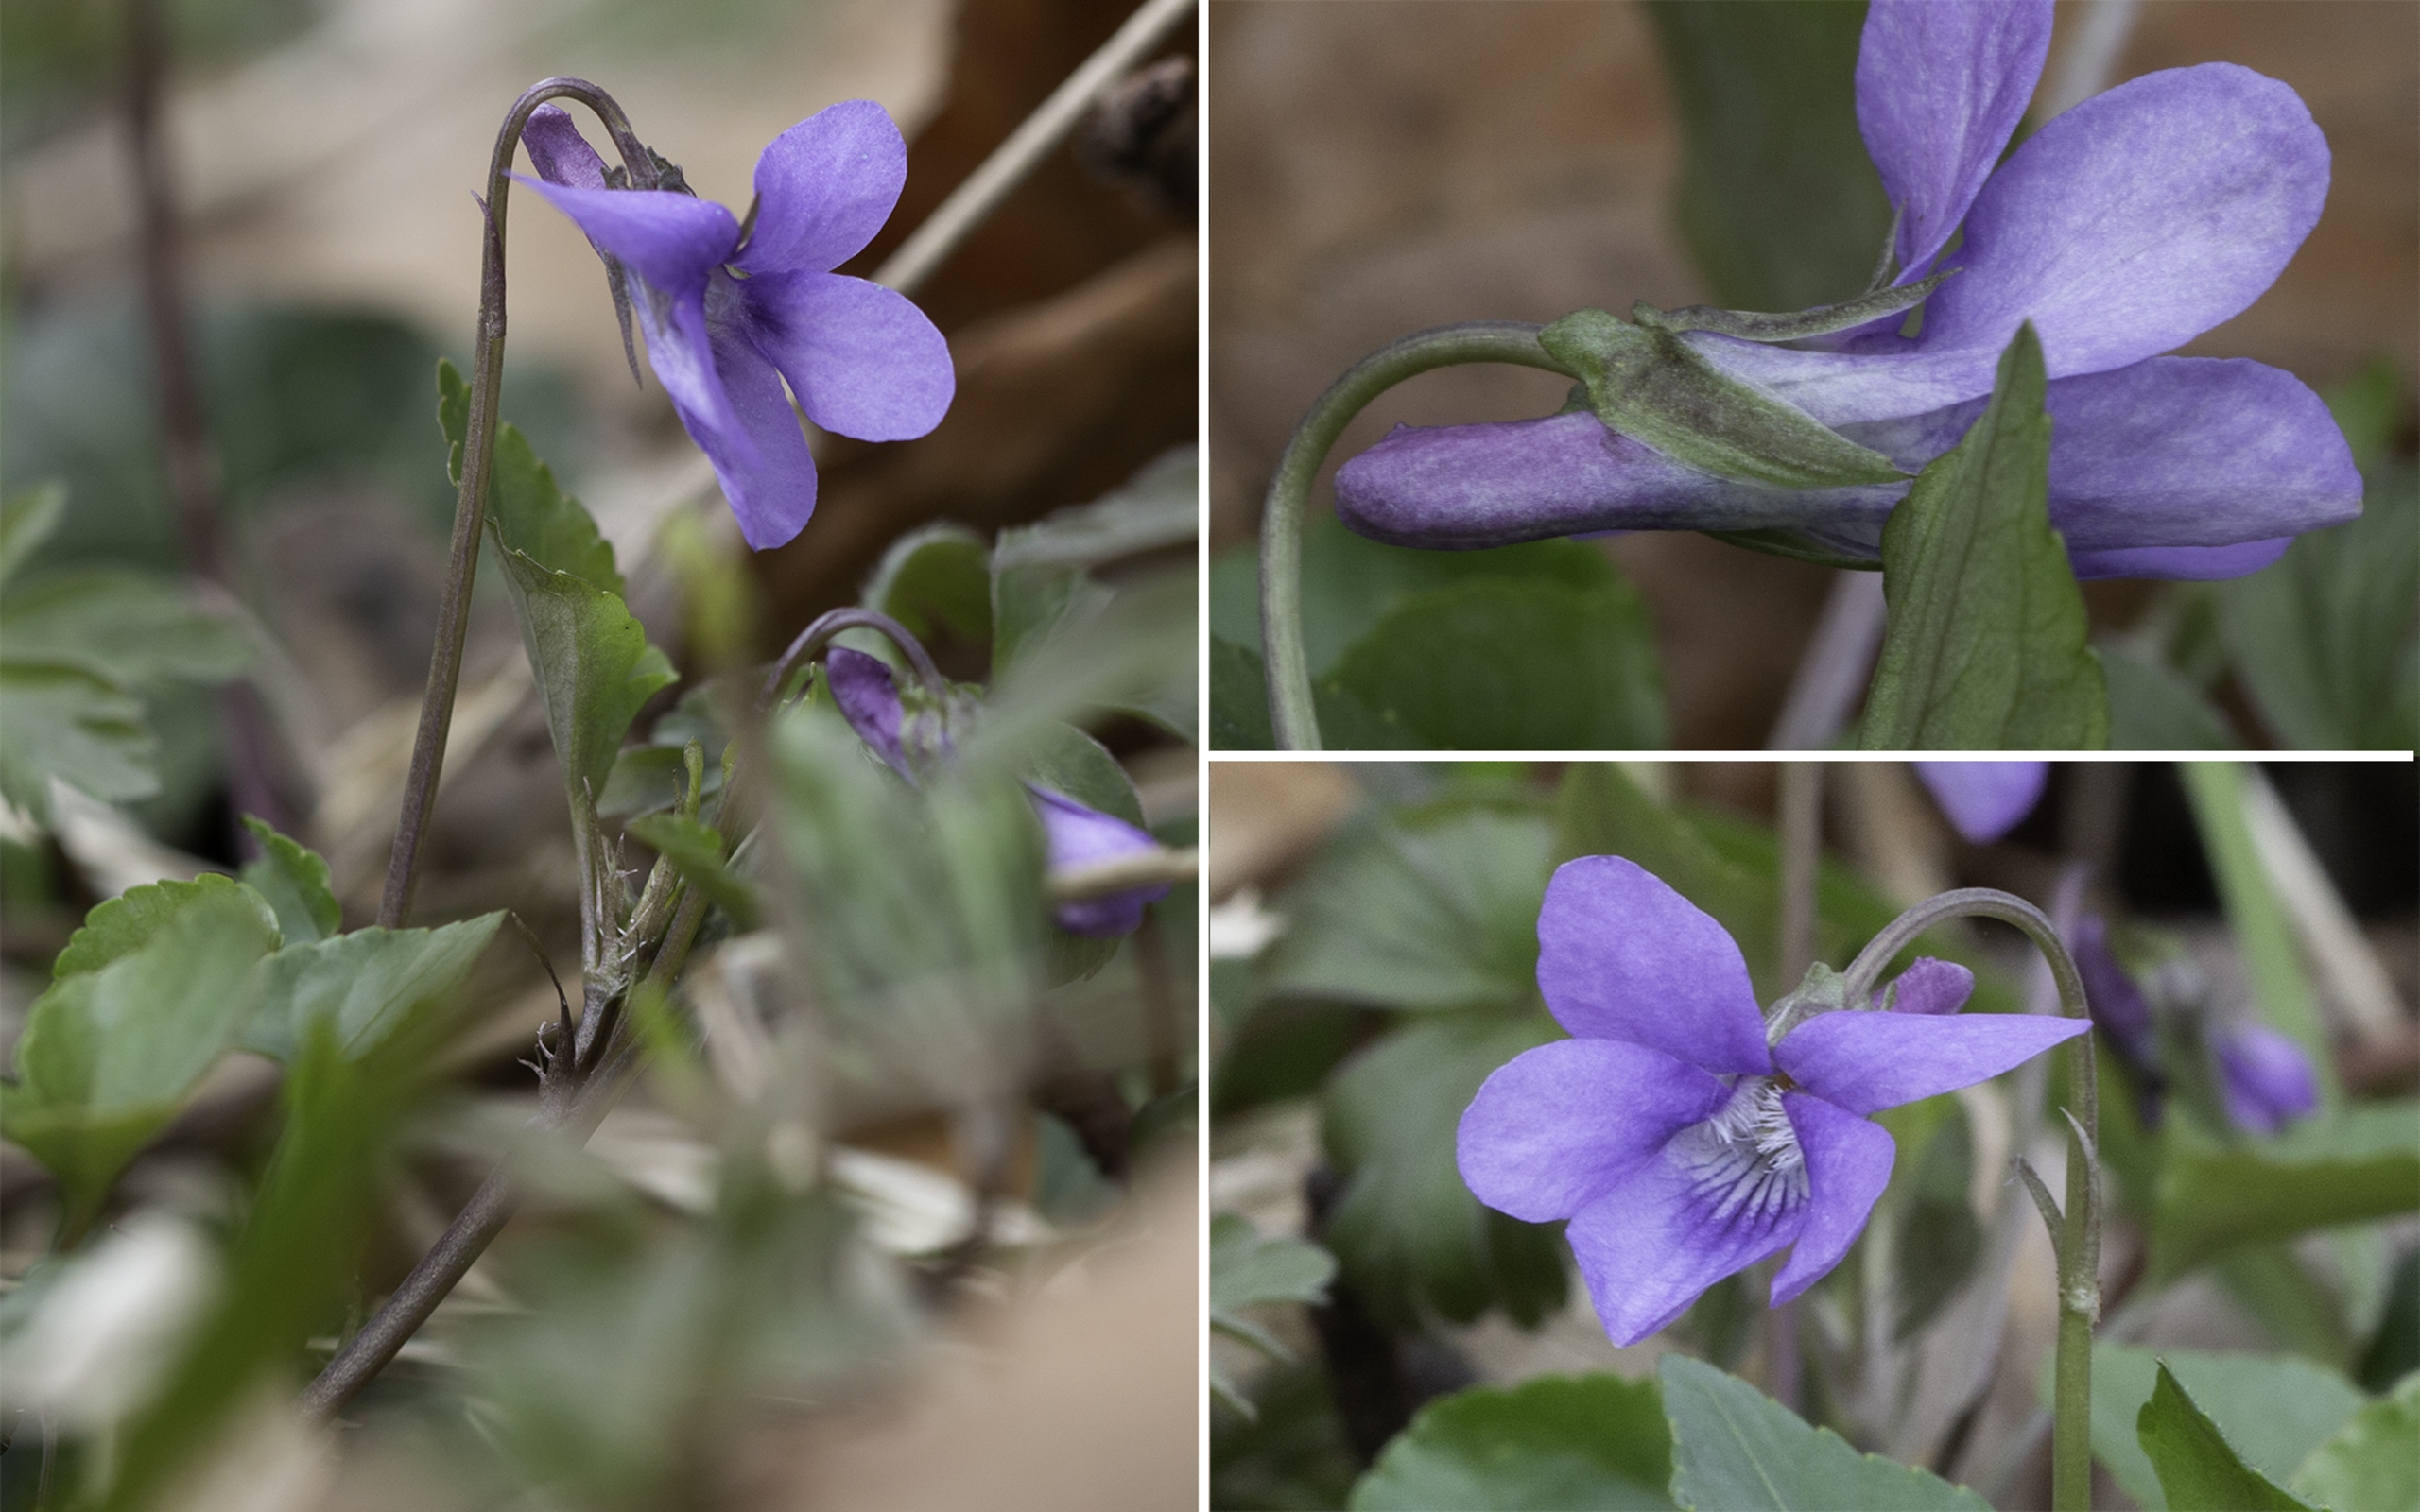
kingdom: Plantae
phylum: Tracheophyta
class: Magnoliopsida
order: Malpighiales
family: Violaceae
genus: Viola
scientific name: Viola reichenbachiana
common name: Skov-viol
